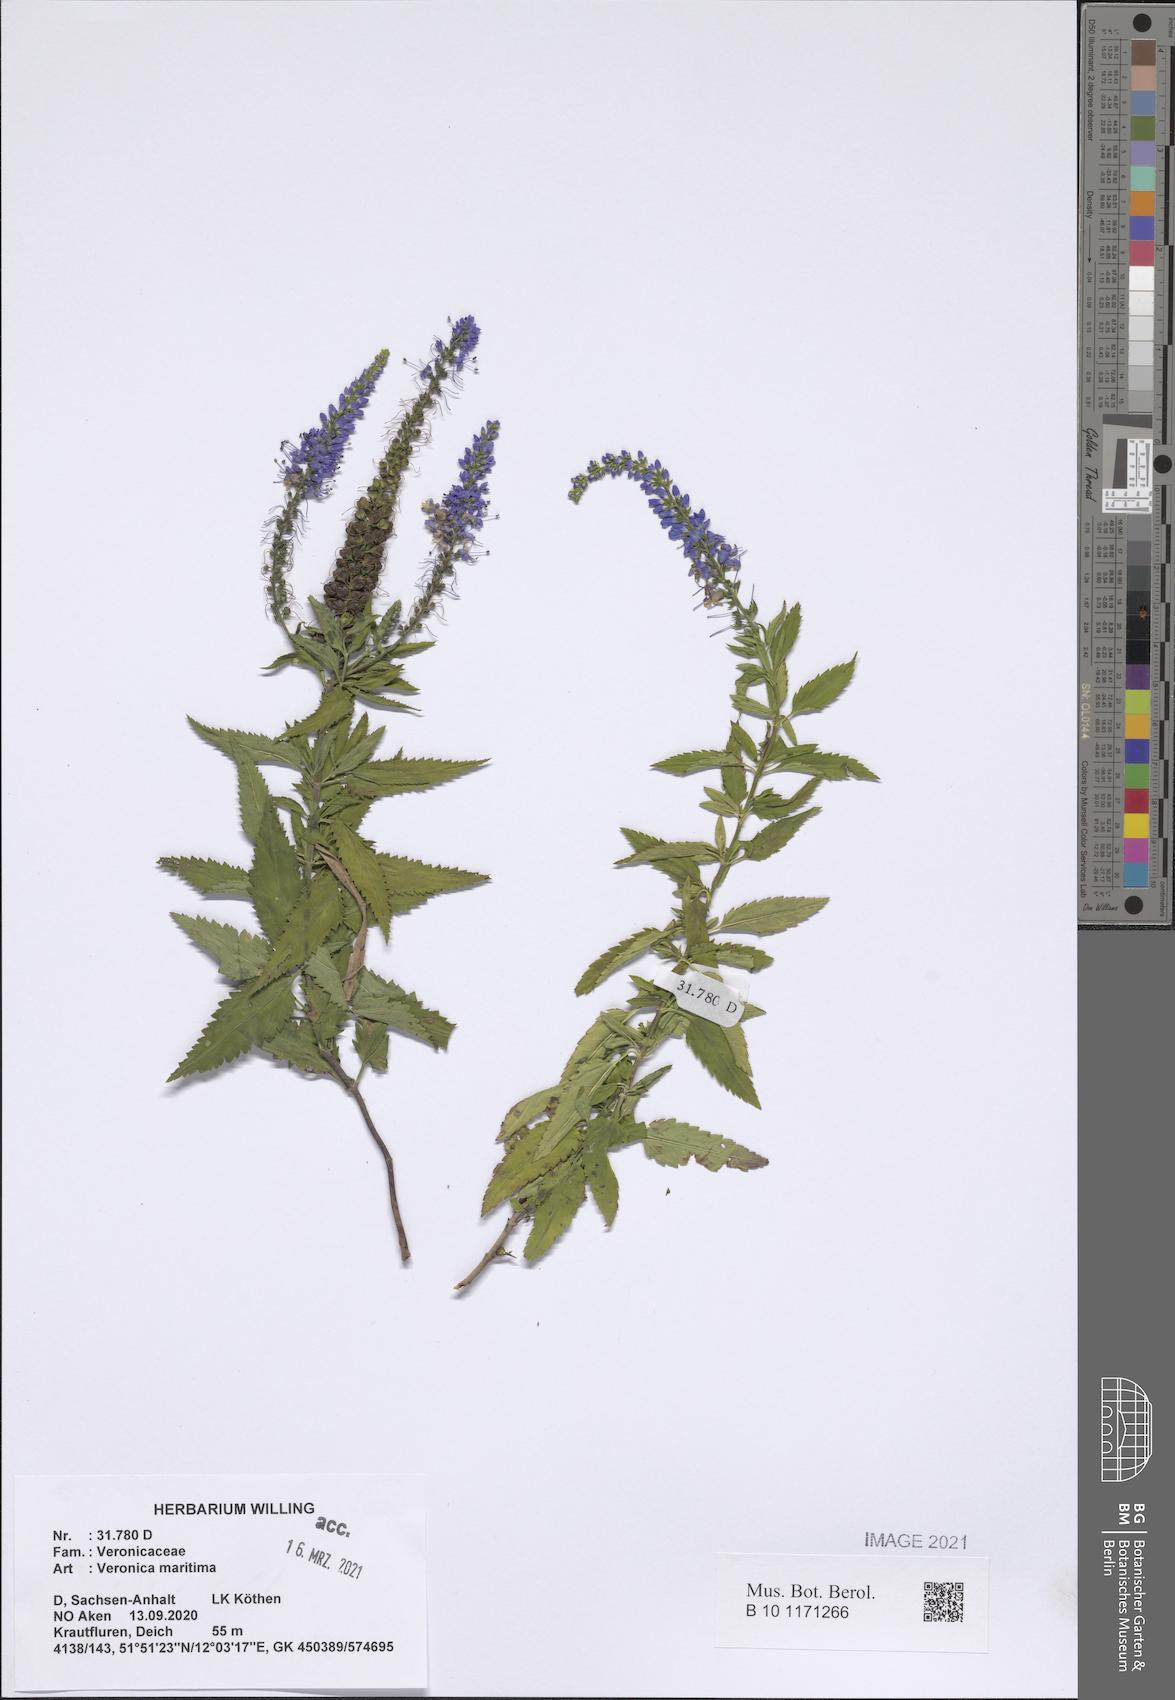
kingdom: Plantae
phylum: Tracheophyta
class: Magnoliopsida
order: Lamiales
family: Plantaginaceae
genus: Veronica
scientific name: Veronica maritima
